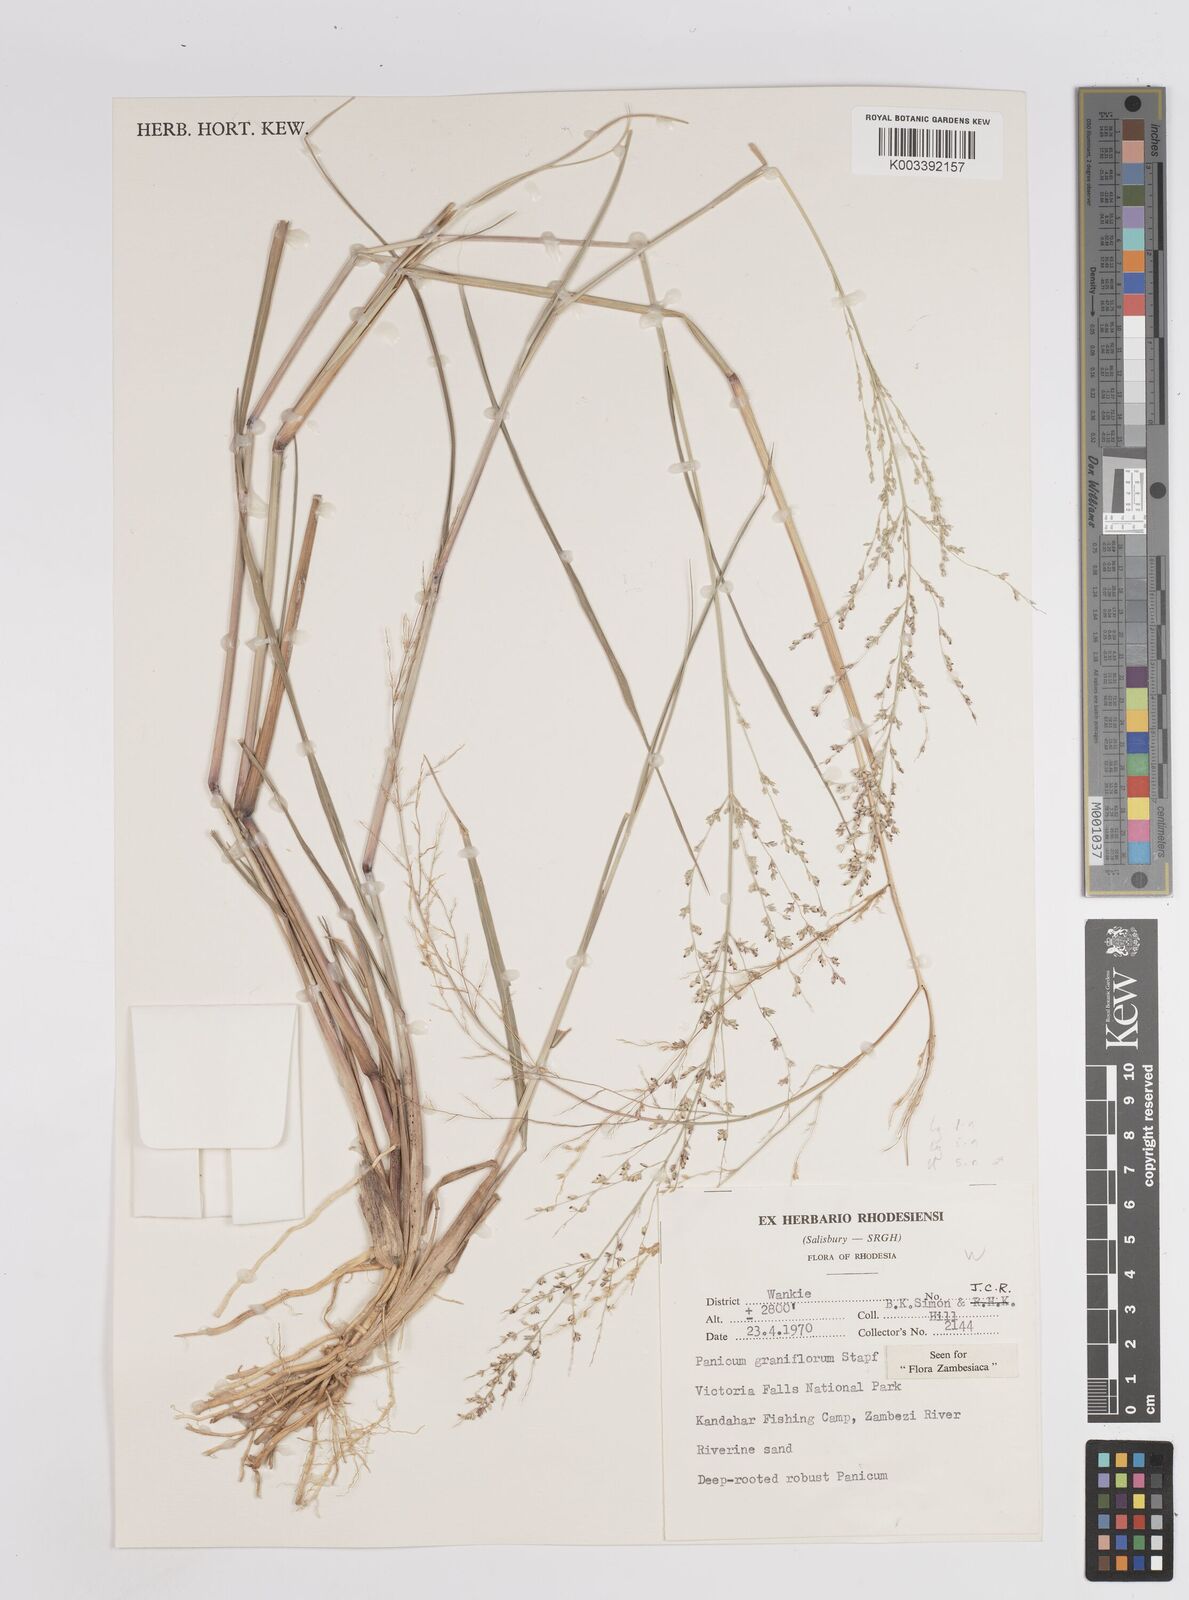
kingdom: Plantae
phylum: Tracheophyta
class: Liliopsida
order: Poales
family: Poaceae
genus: Panicum
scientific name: Panicum graniflorum
